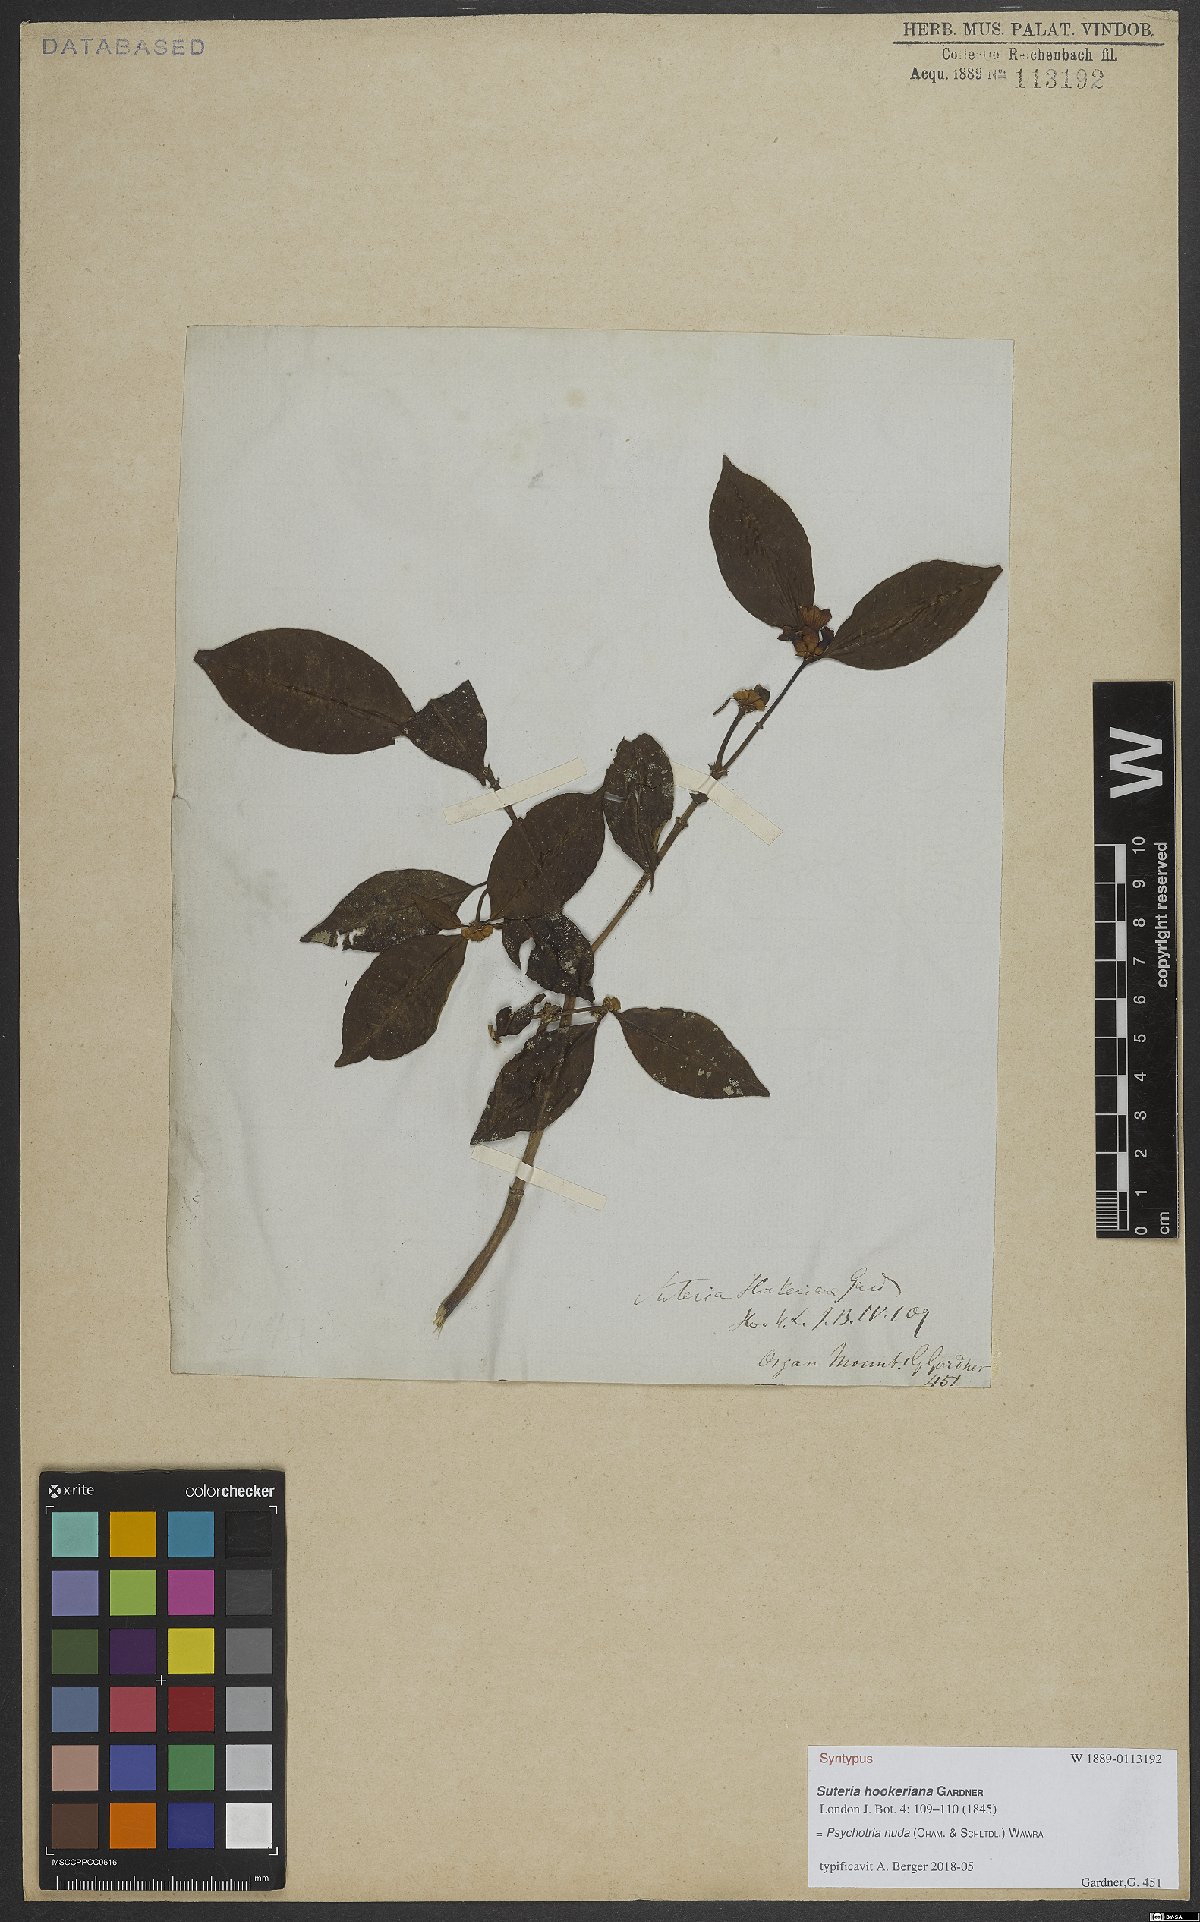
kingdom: Plantae
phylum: Tracheophyta
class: Magnoliopsida
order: Gentianales
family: Rubiaceae
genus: Psychotria
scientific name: Psychotria nuda
